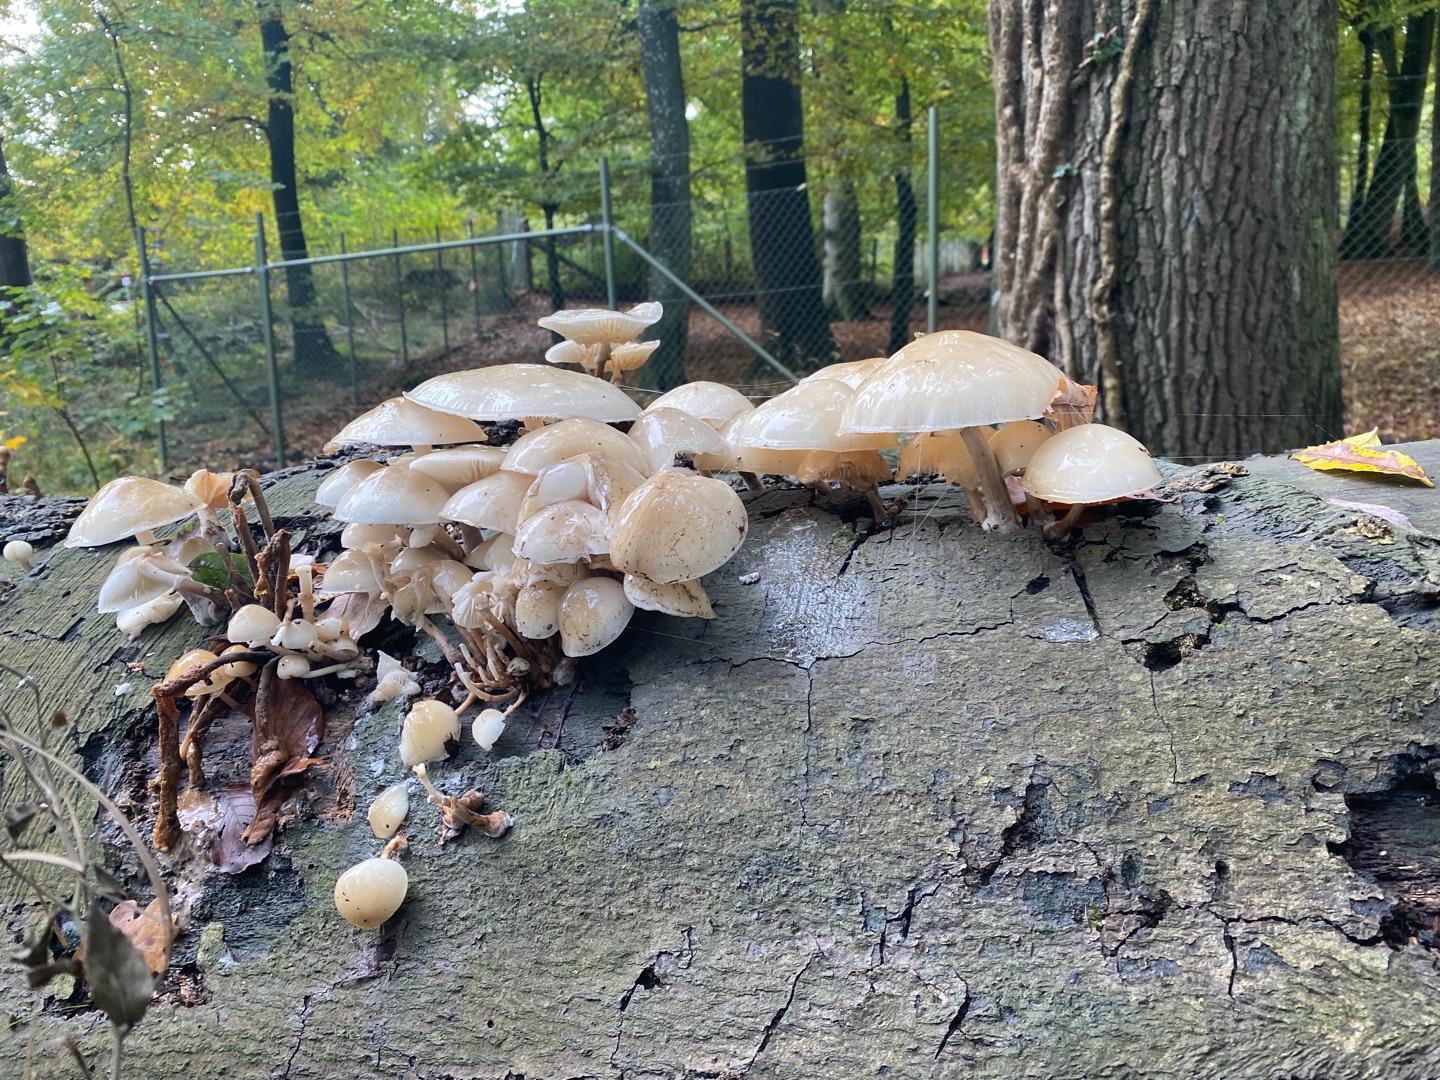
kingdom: Fungi
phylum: Basidiomycota
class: Agaricomycetes
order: Agaricales
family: Physalacriaceae
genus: Mucidula
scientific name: Mucidula mucida
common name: Porcelænshat
